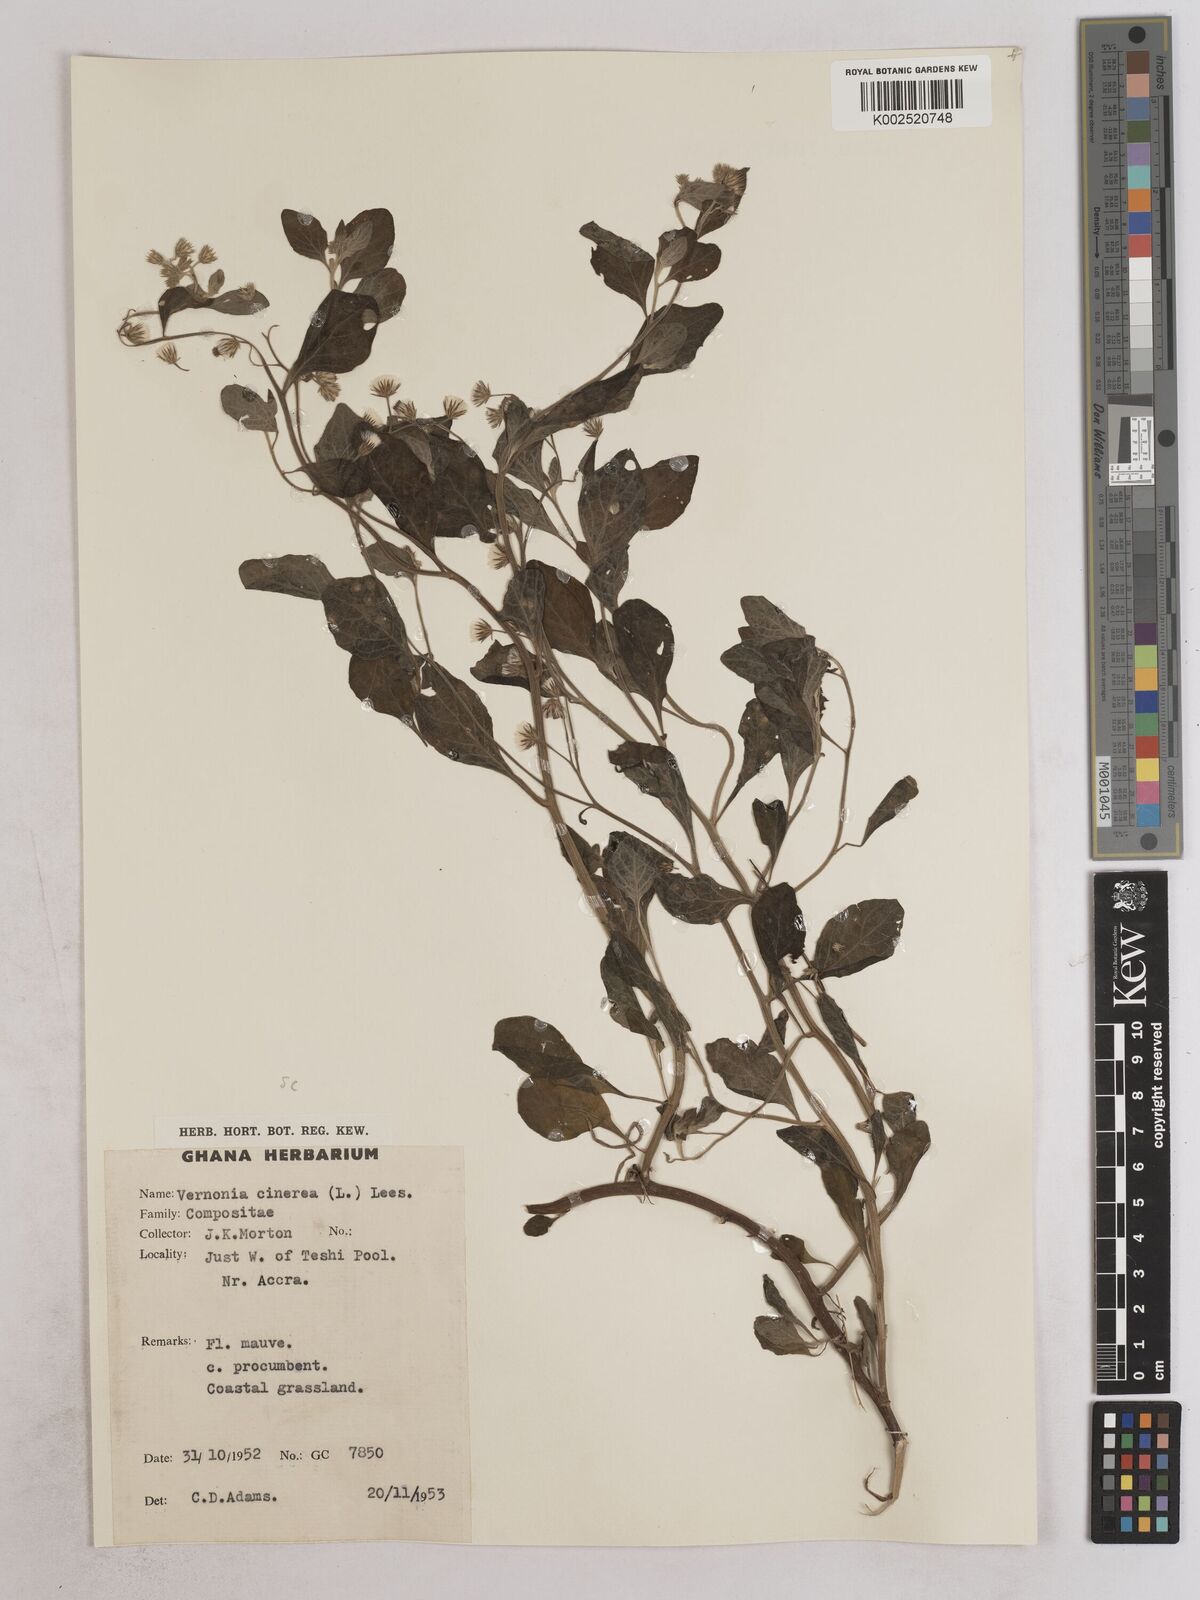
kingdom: Plantae
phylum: Tracheophyta
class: Magnoliopsida
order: Asterales
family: Asteraceae
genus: Cyanthillium
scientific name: Cyanthillium cinereum
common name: Little ironweed
